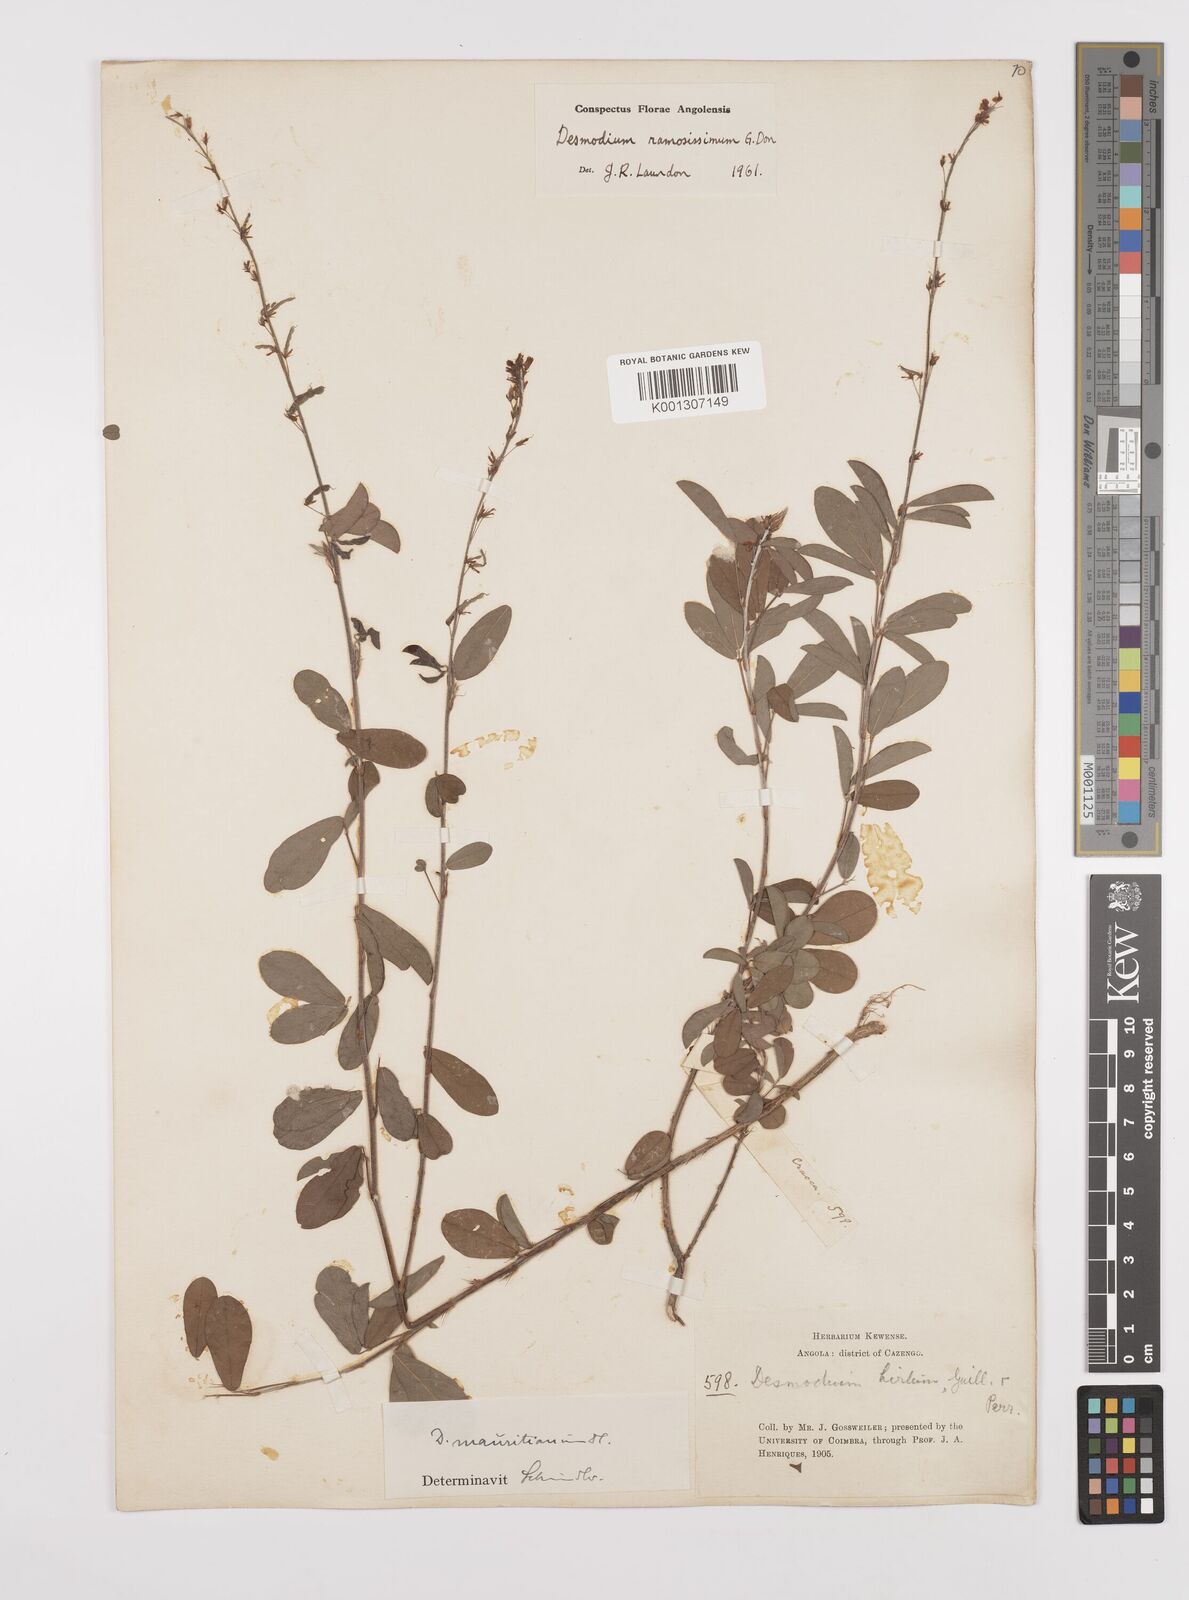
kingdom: Plantae
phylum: Tracheophyta
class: Magnoliopsida
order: Fabales
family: Fabaceae
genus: Grona
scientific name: Grona ramosissima
